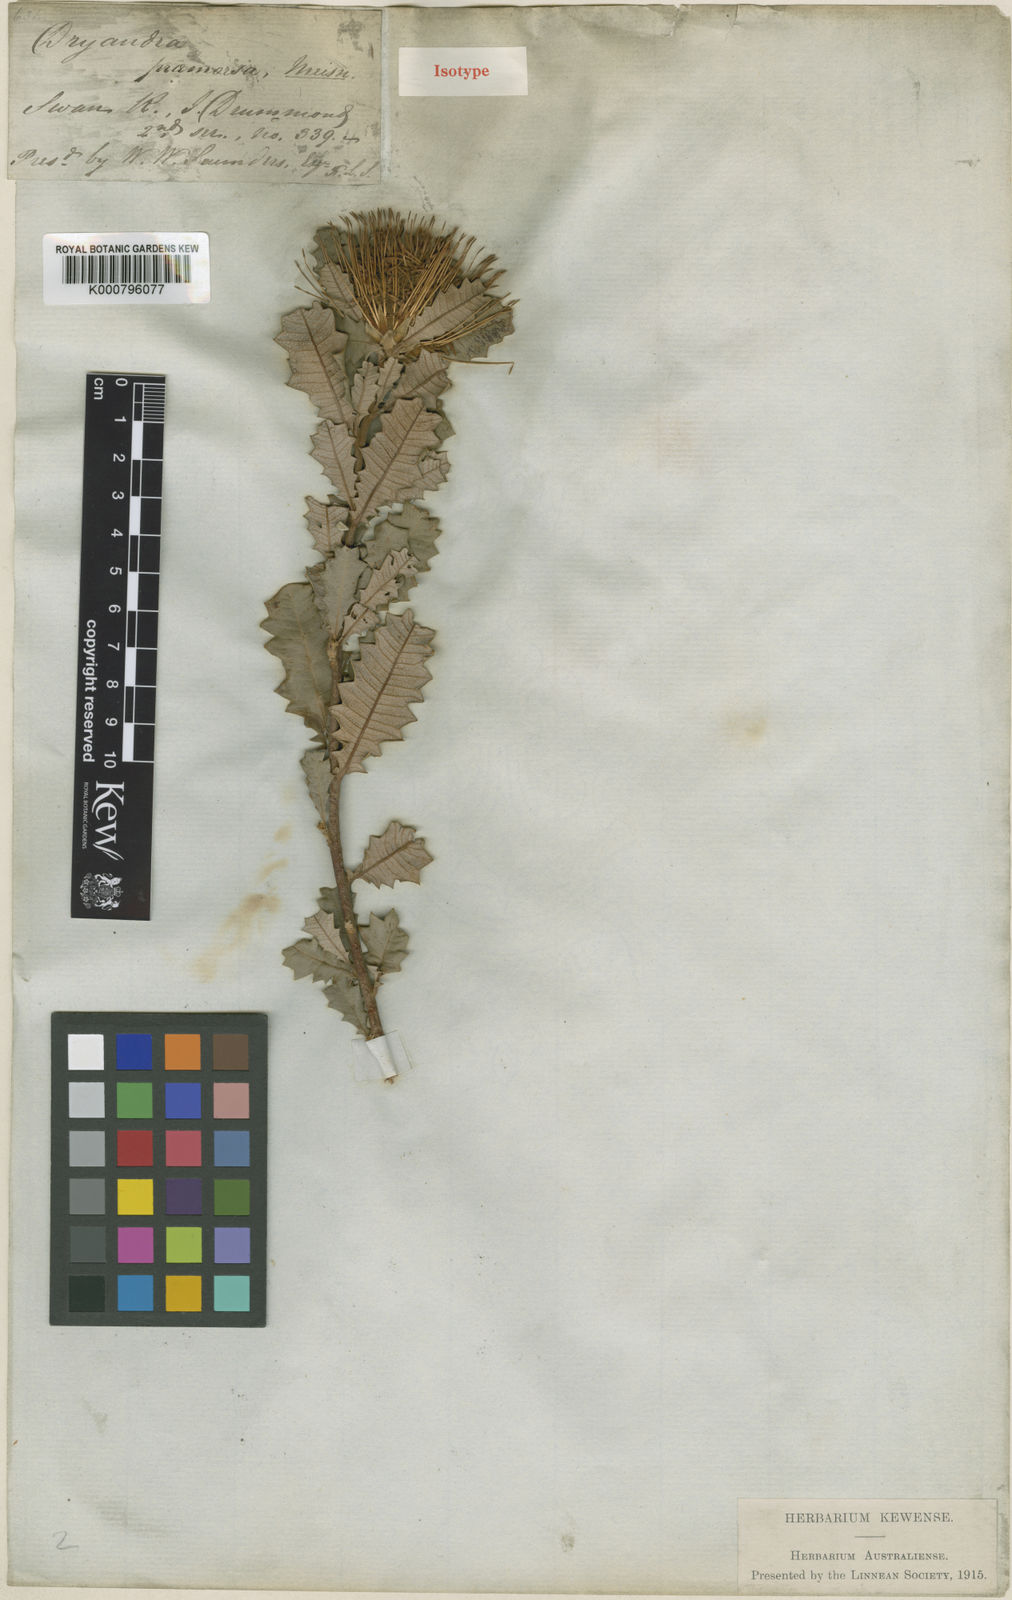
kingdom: Plantae
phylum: Tracheophyta
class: Magnoliopsida
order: Proteales
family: Proteaceae
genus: Banksia
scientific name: Banksia undata
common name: Cut-leaf dryandra
